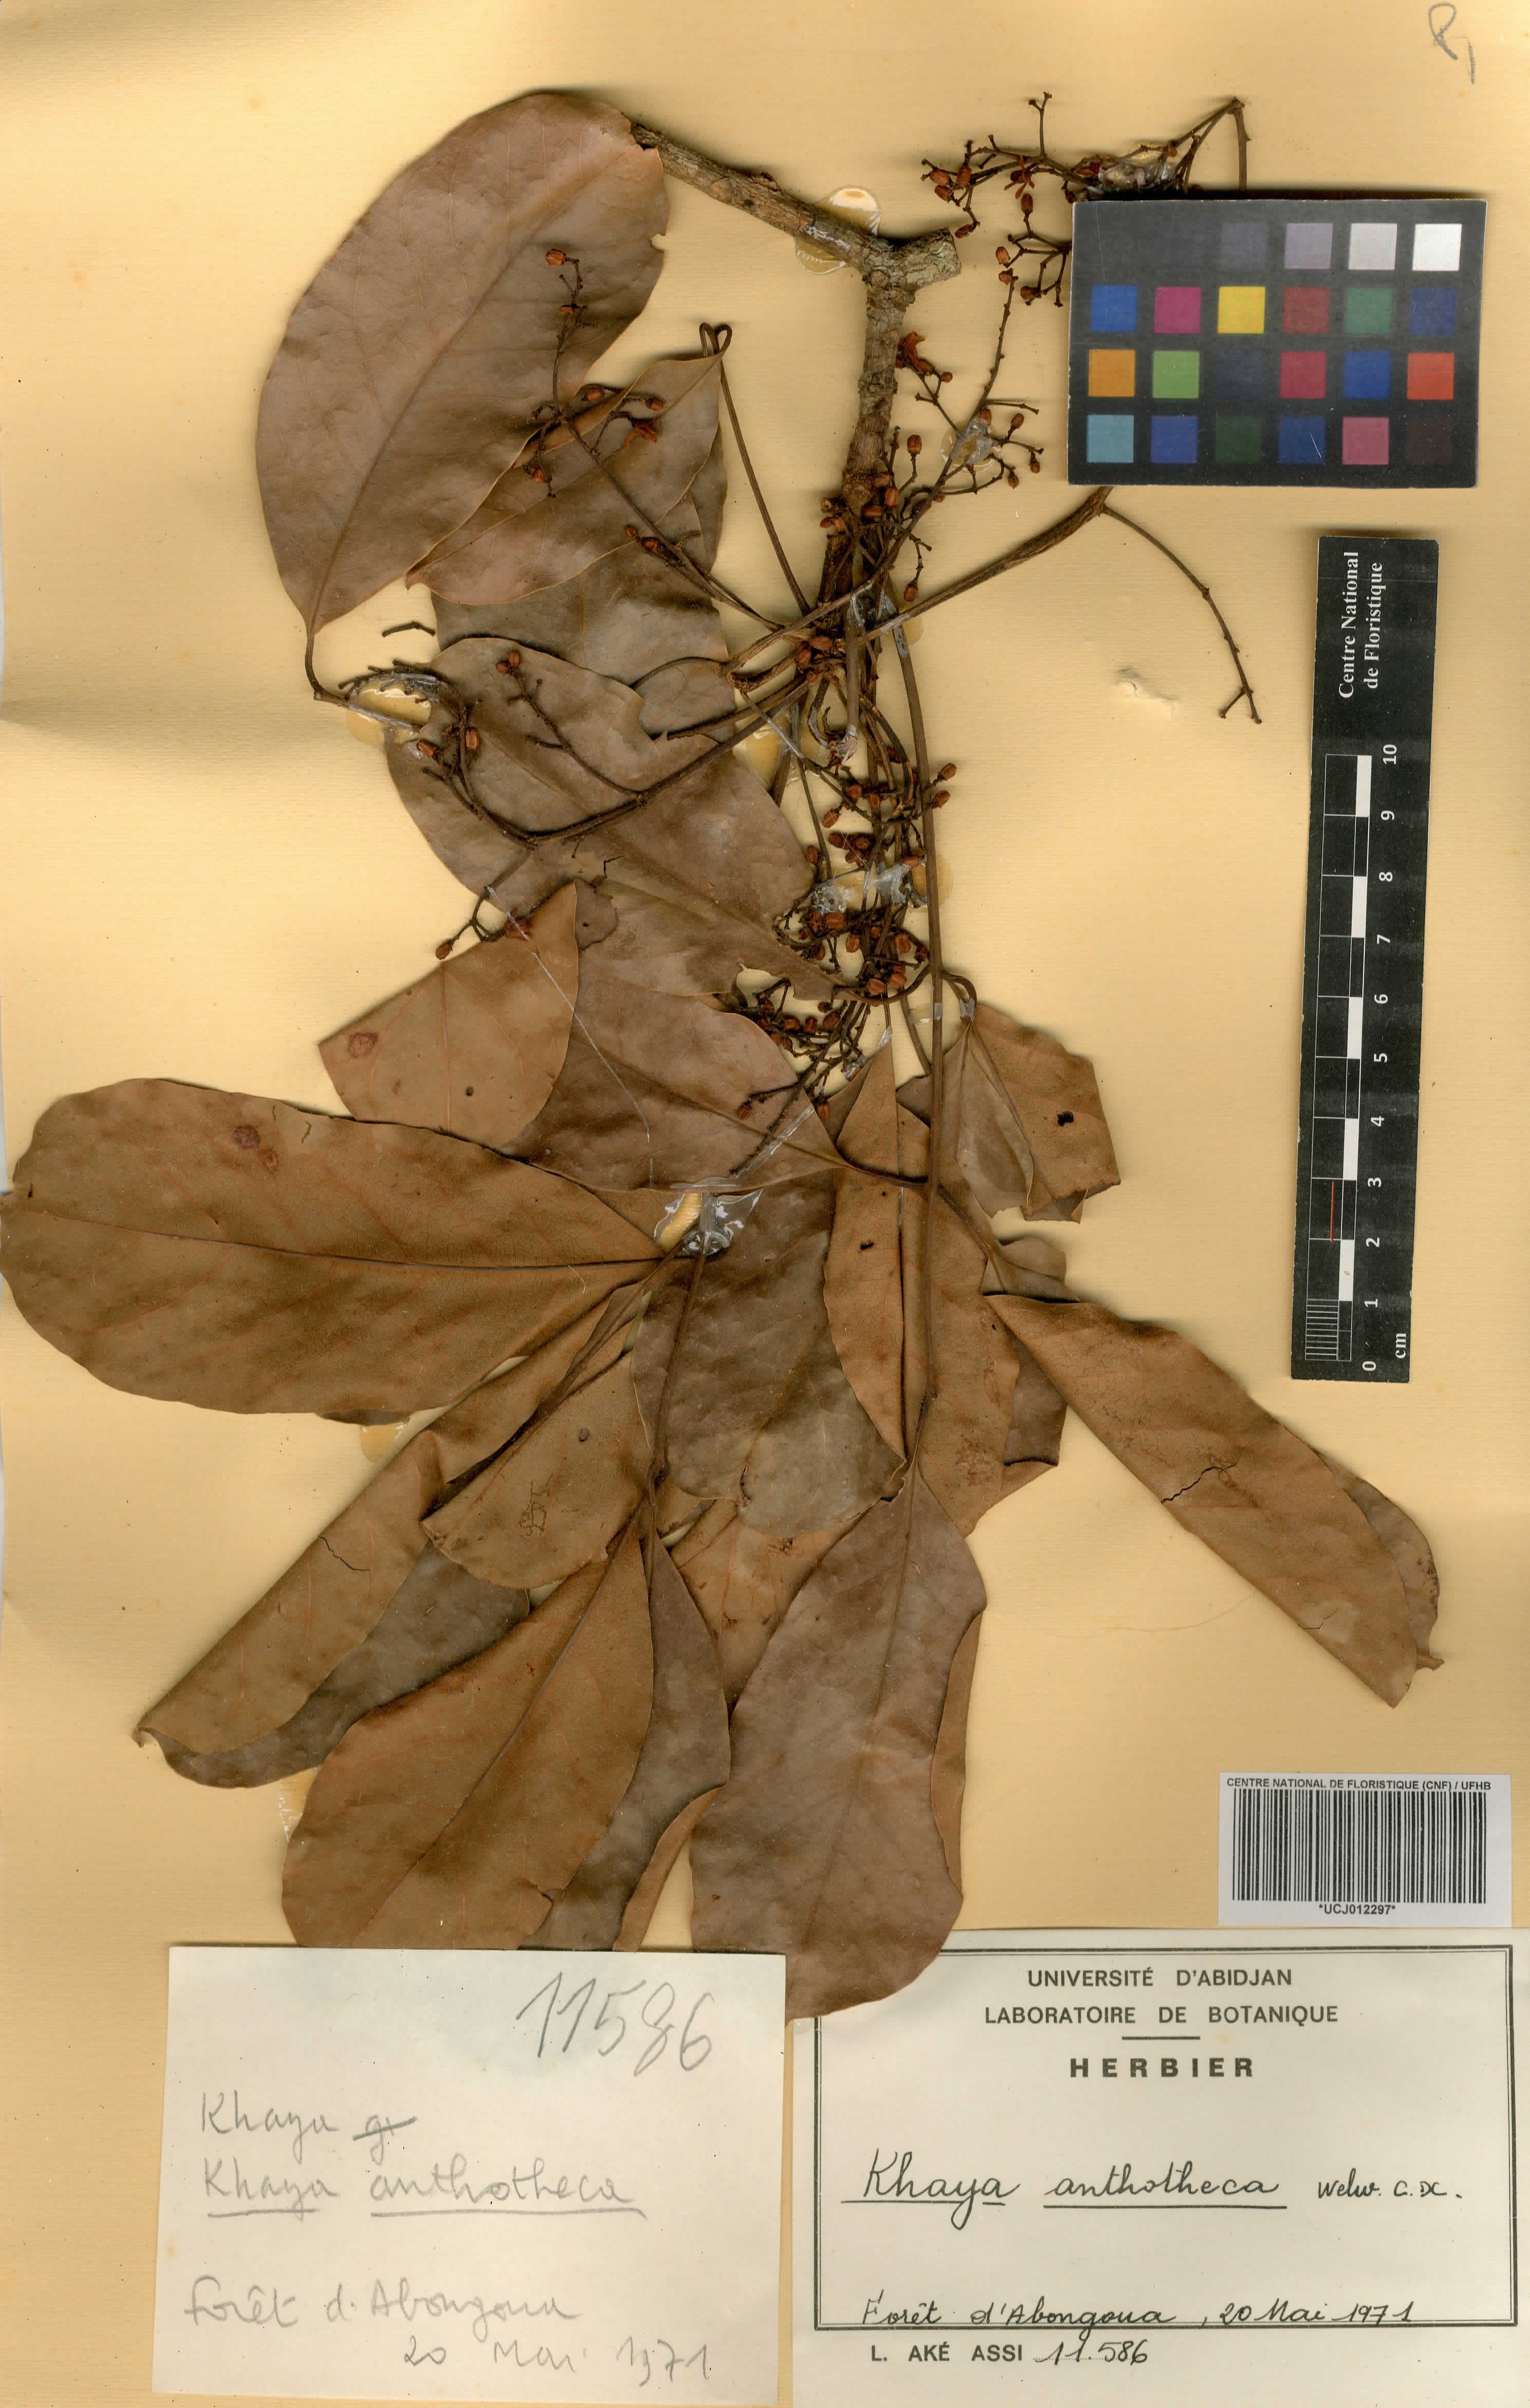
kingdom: Plantae
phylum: Tracheophyta
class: Magnoliopsida
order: Sapindales
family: Meliaceae
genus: Khaya
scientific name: Khaya anthotheca
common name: Nyasaland mahogany
